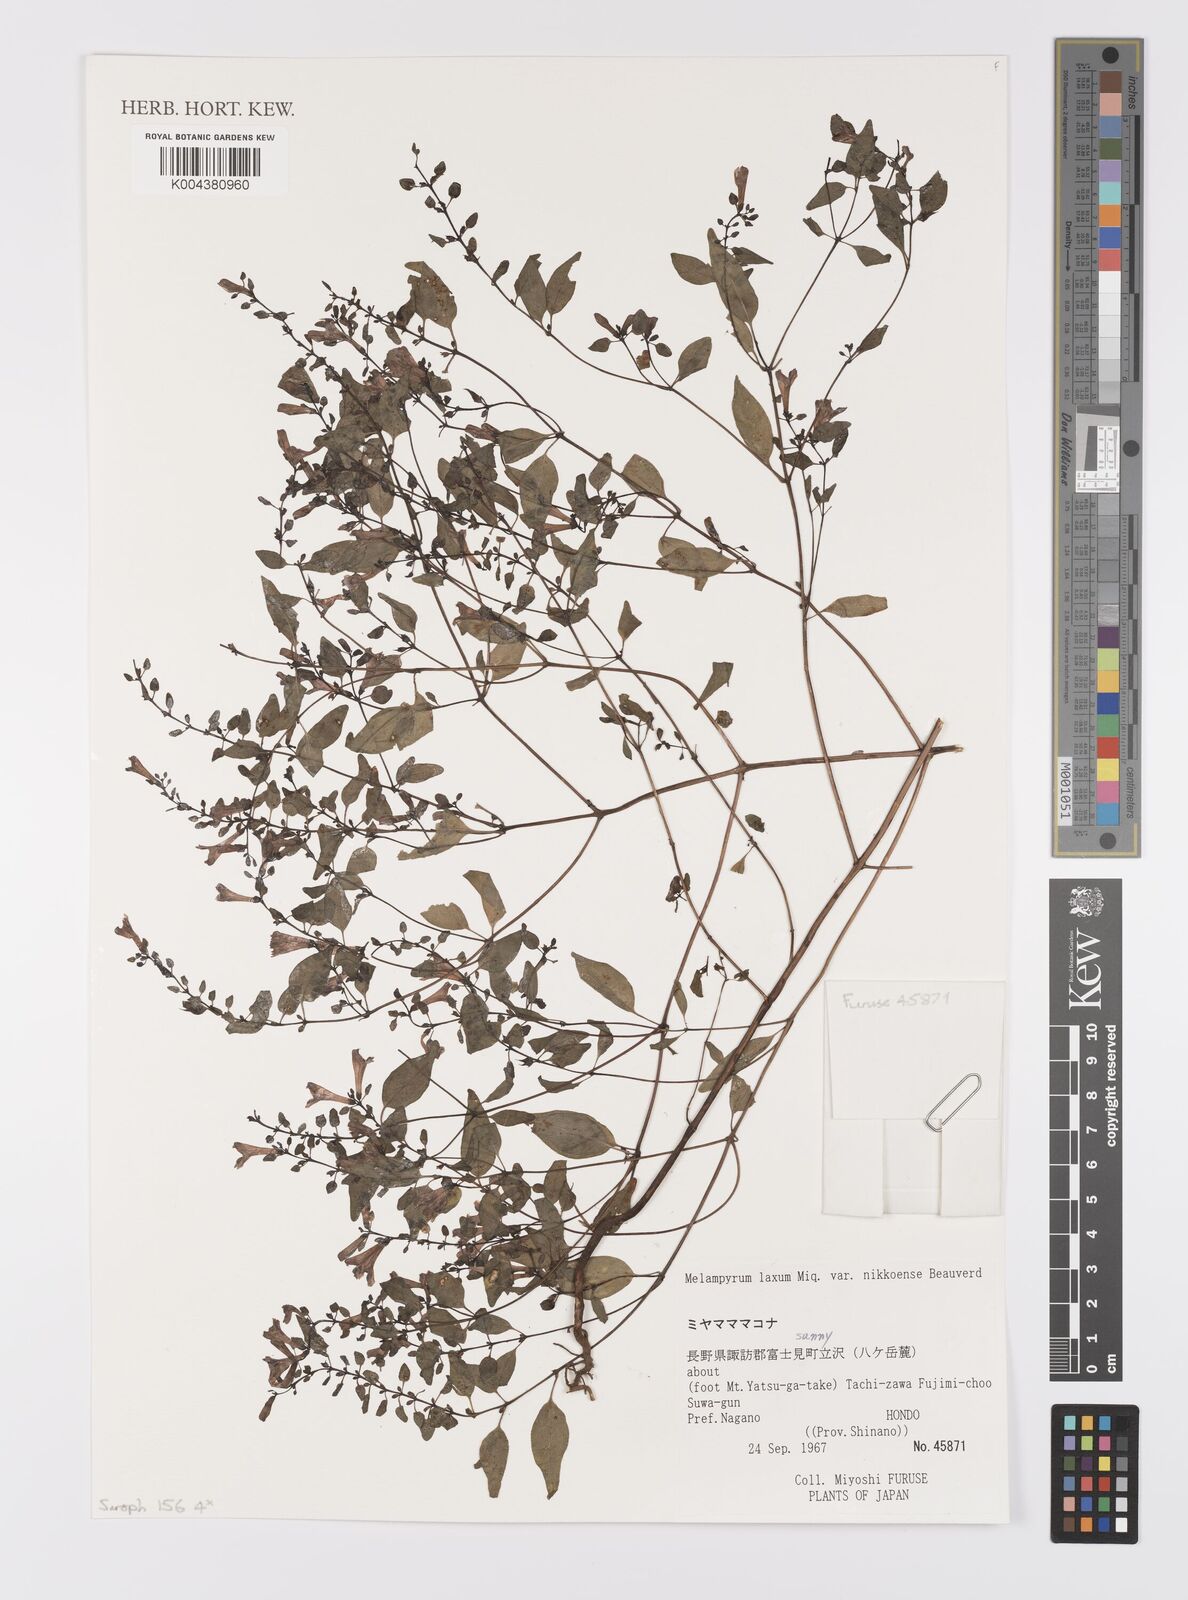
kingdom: Plantae
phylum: Tracheophyta
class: Magnoliopsida
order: Lamiales
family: Orobanchaceae
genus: Melampyrum
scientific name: Melampyrum laxum
